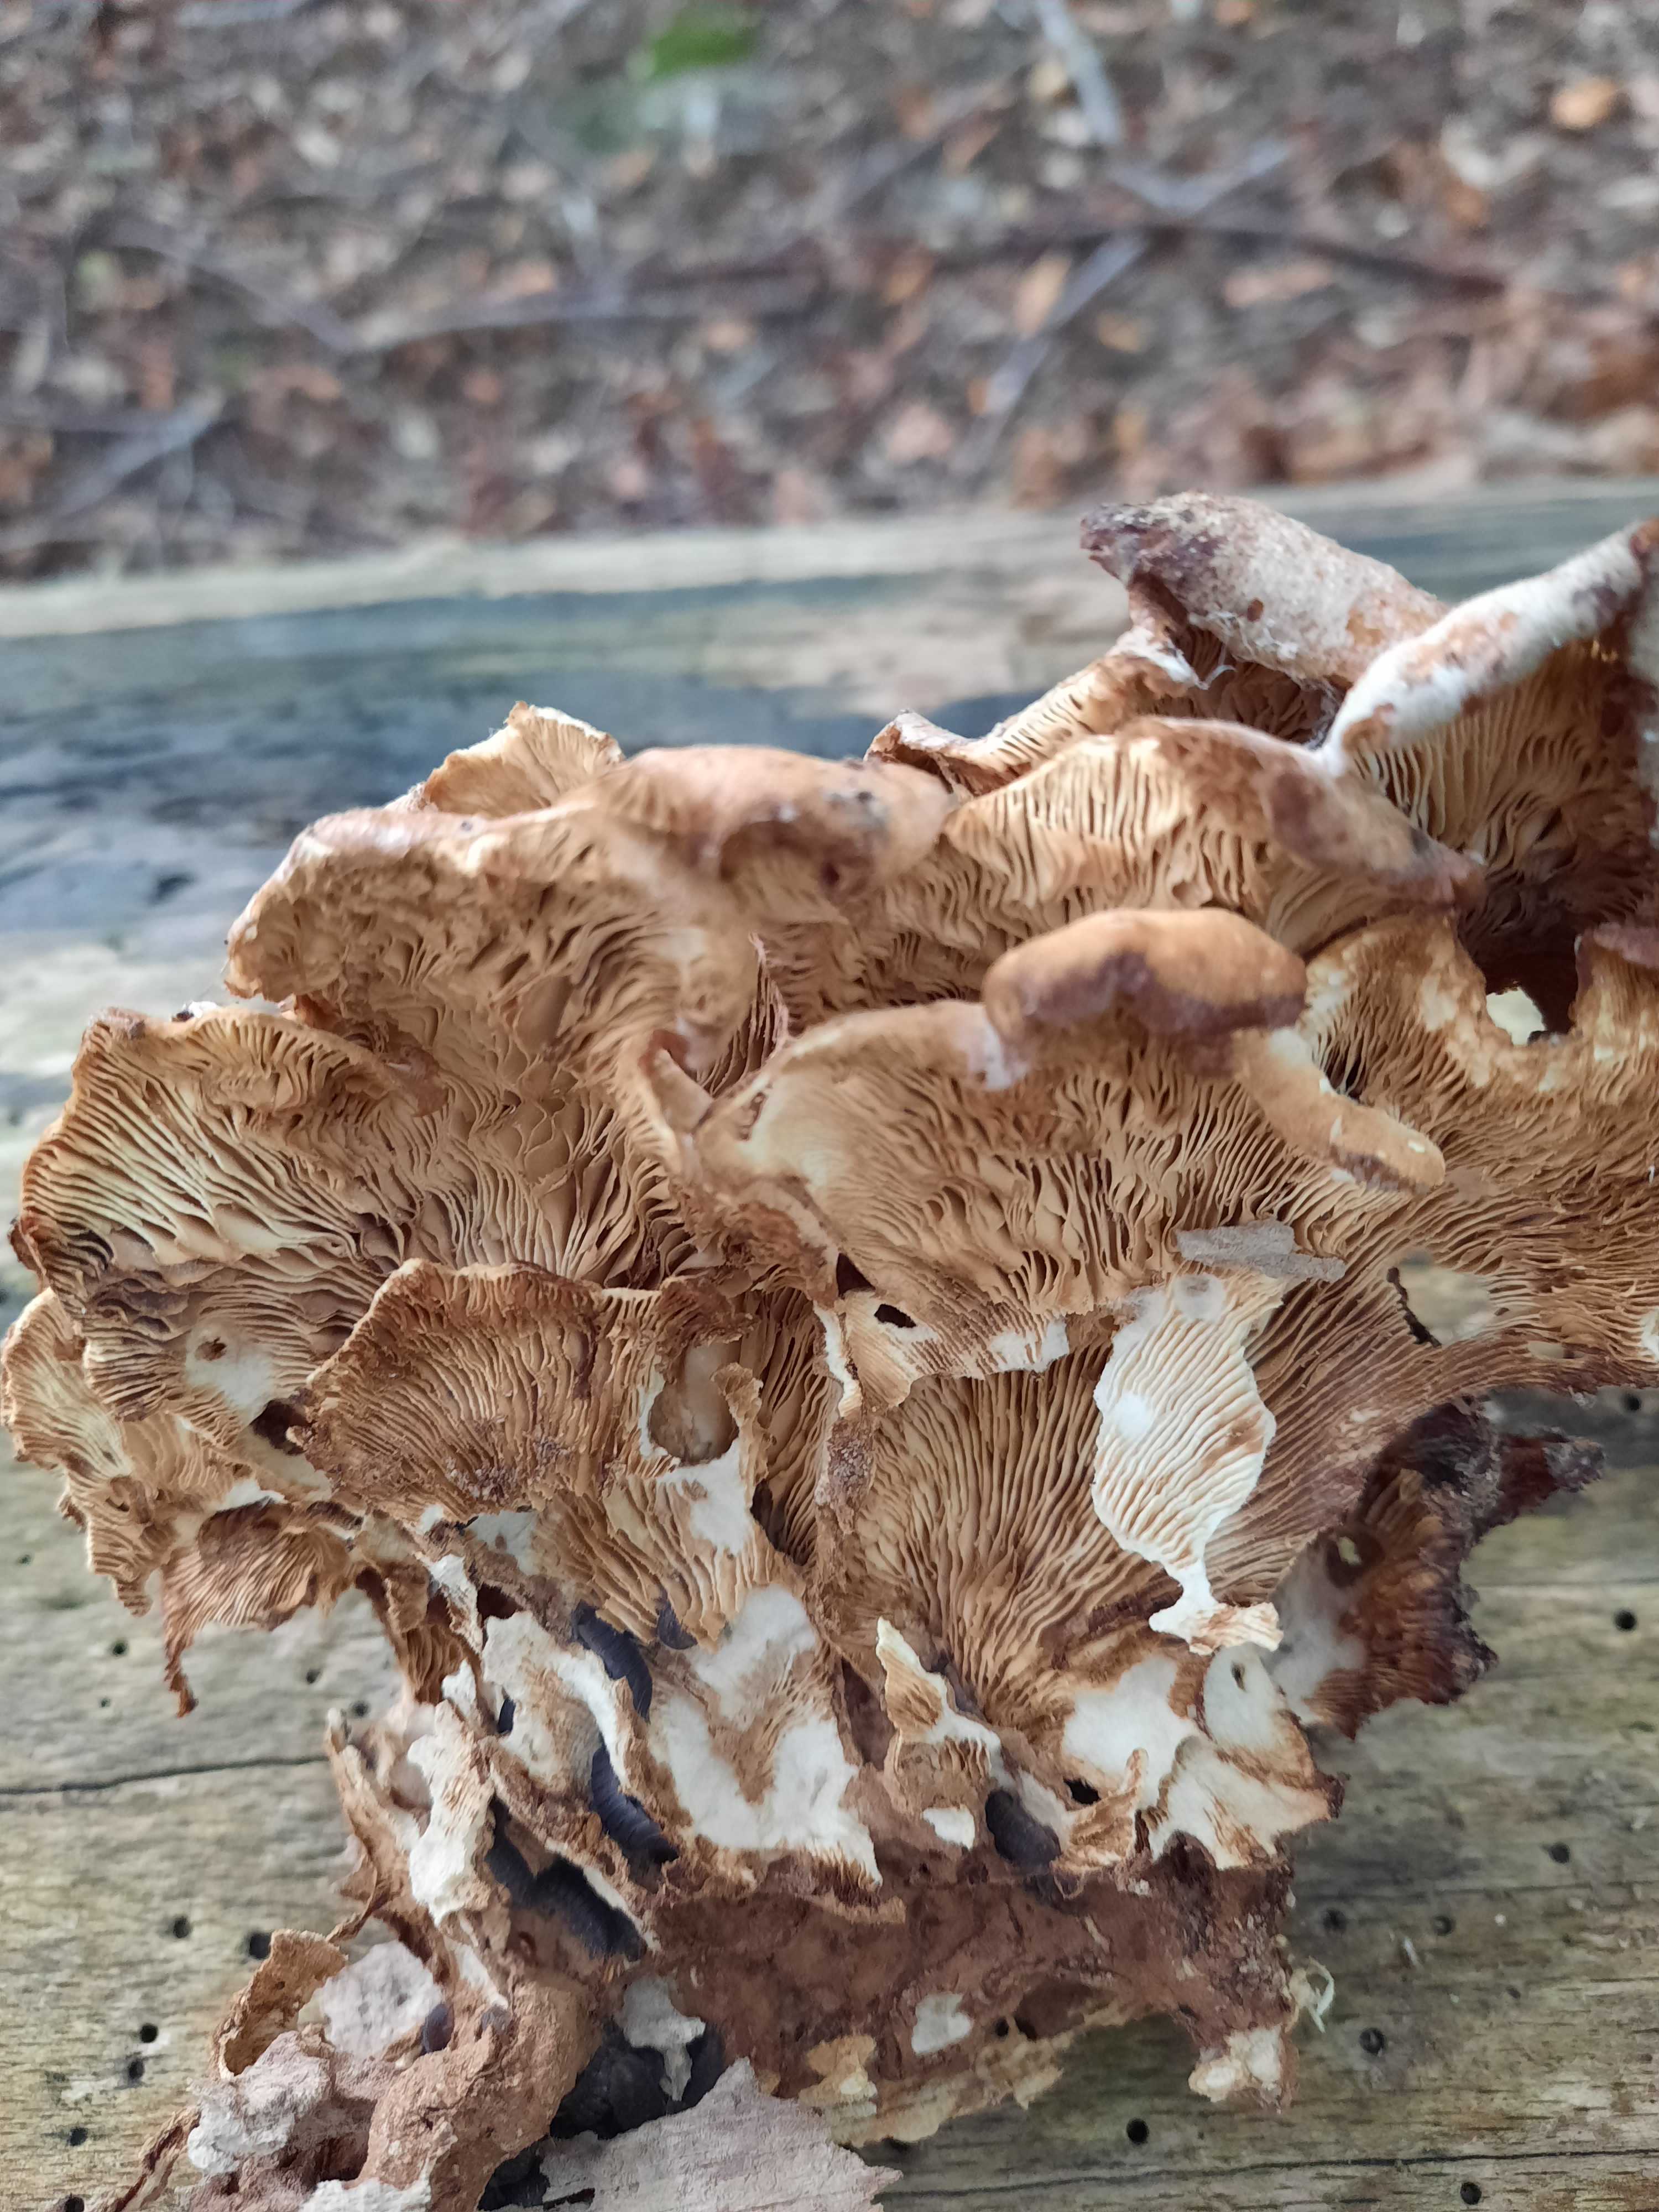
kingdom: Fungi
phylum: Basidiomycota
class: Agaricomycetes
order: Russulales
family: Auriscalpiaceae
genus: Lentinellus
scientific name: Lentinellus ursinus
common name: børstehåret savbladhat
